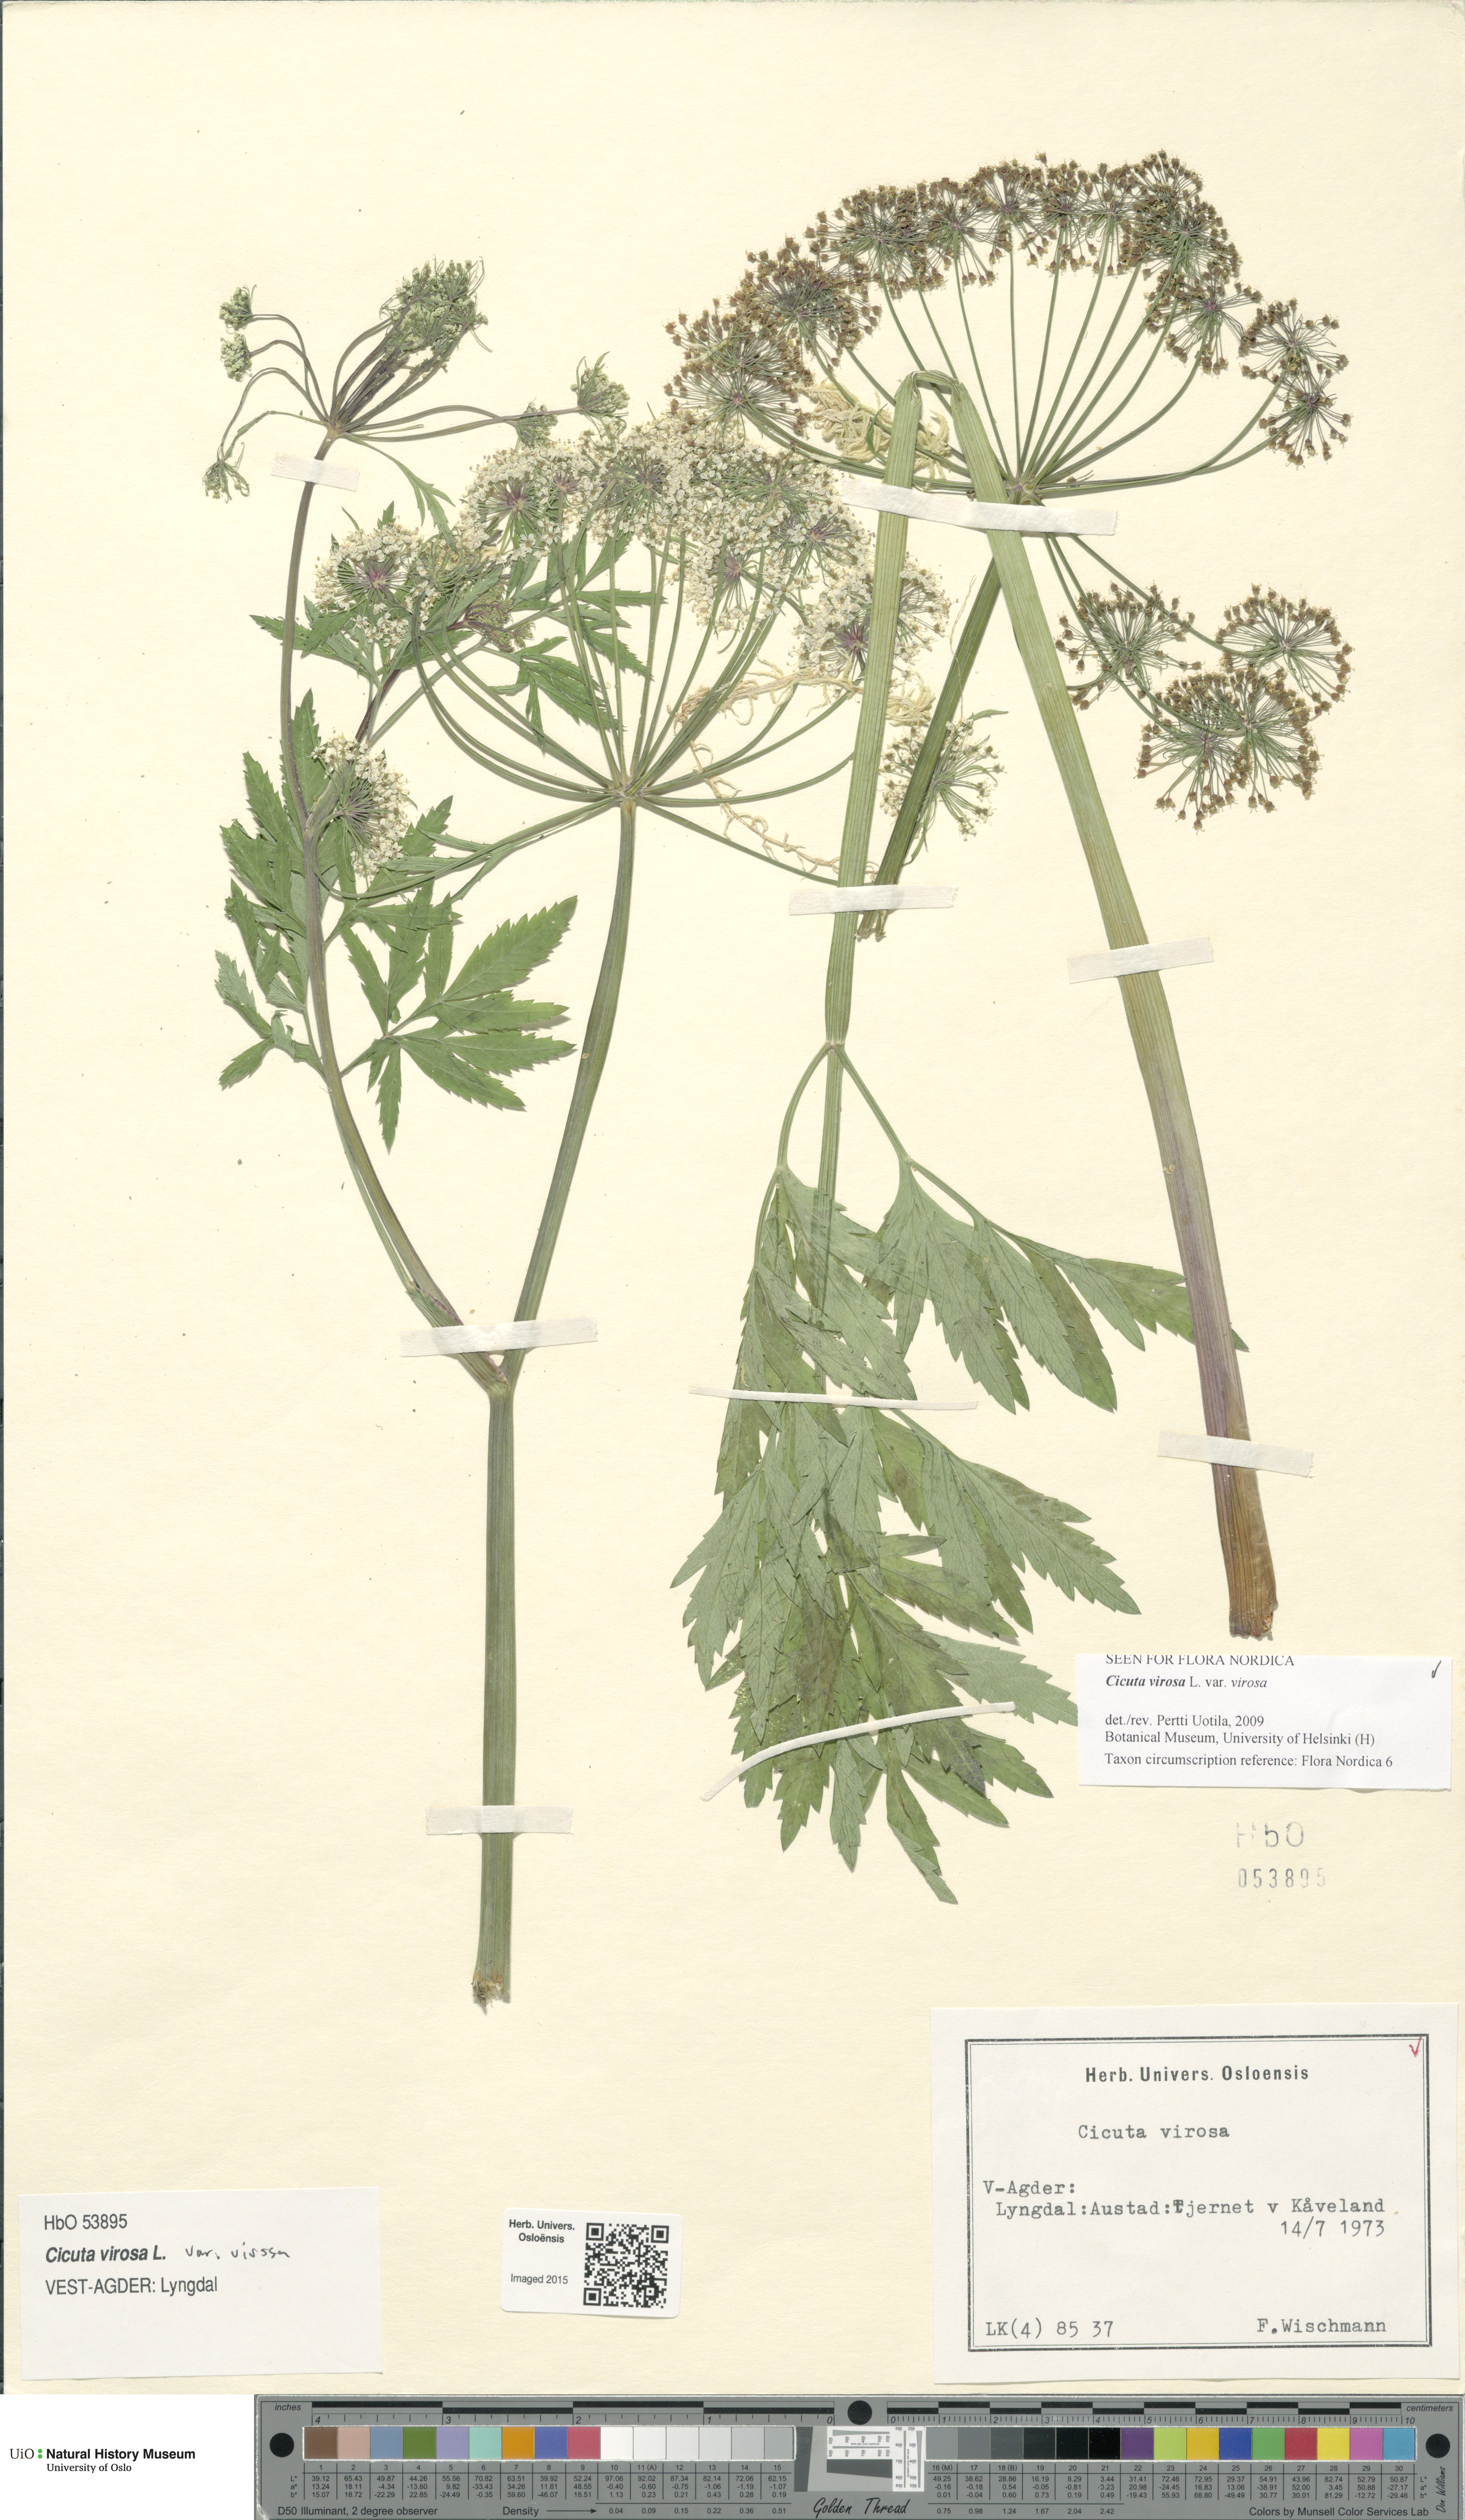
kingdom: Plantae
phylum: Tracheophyta
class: Magnoliopsida
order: Apiales
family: Apiaceae
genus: Cicuta
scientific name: Cicuta virosa
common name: Cowbane
